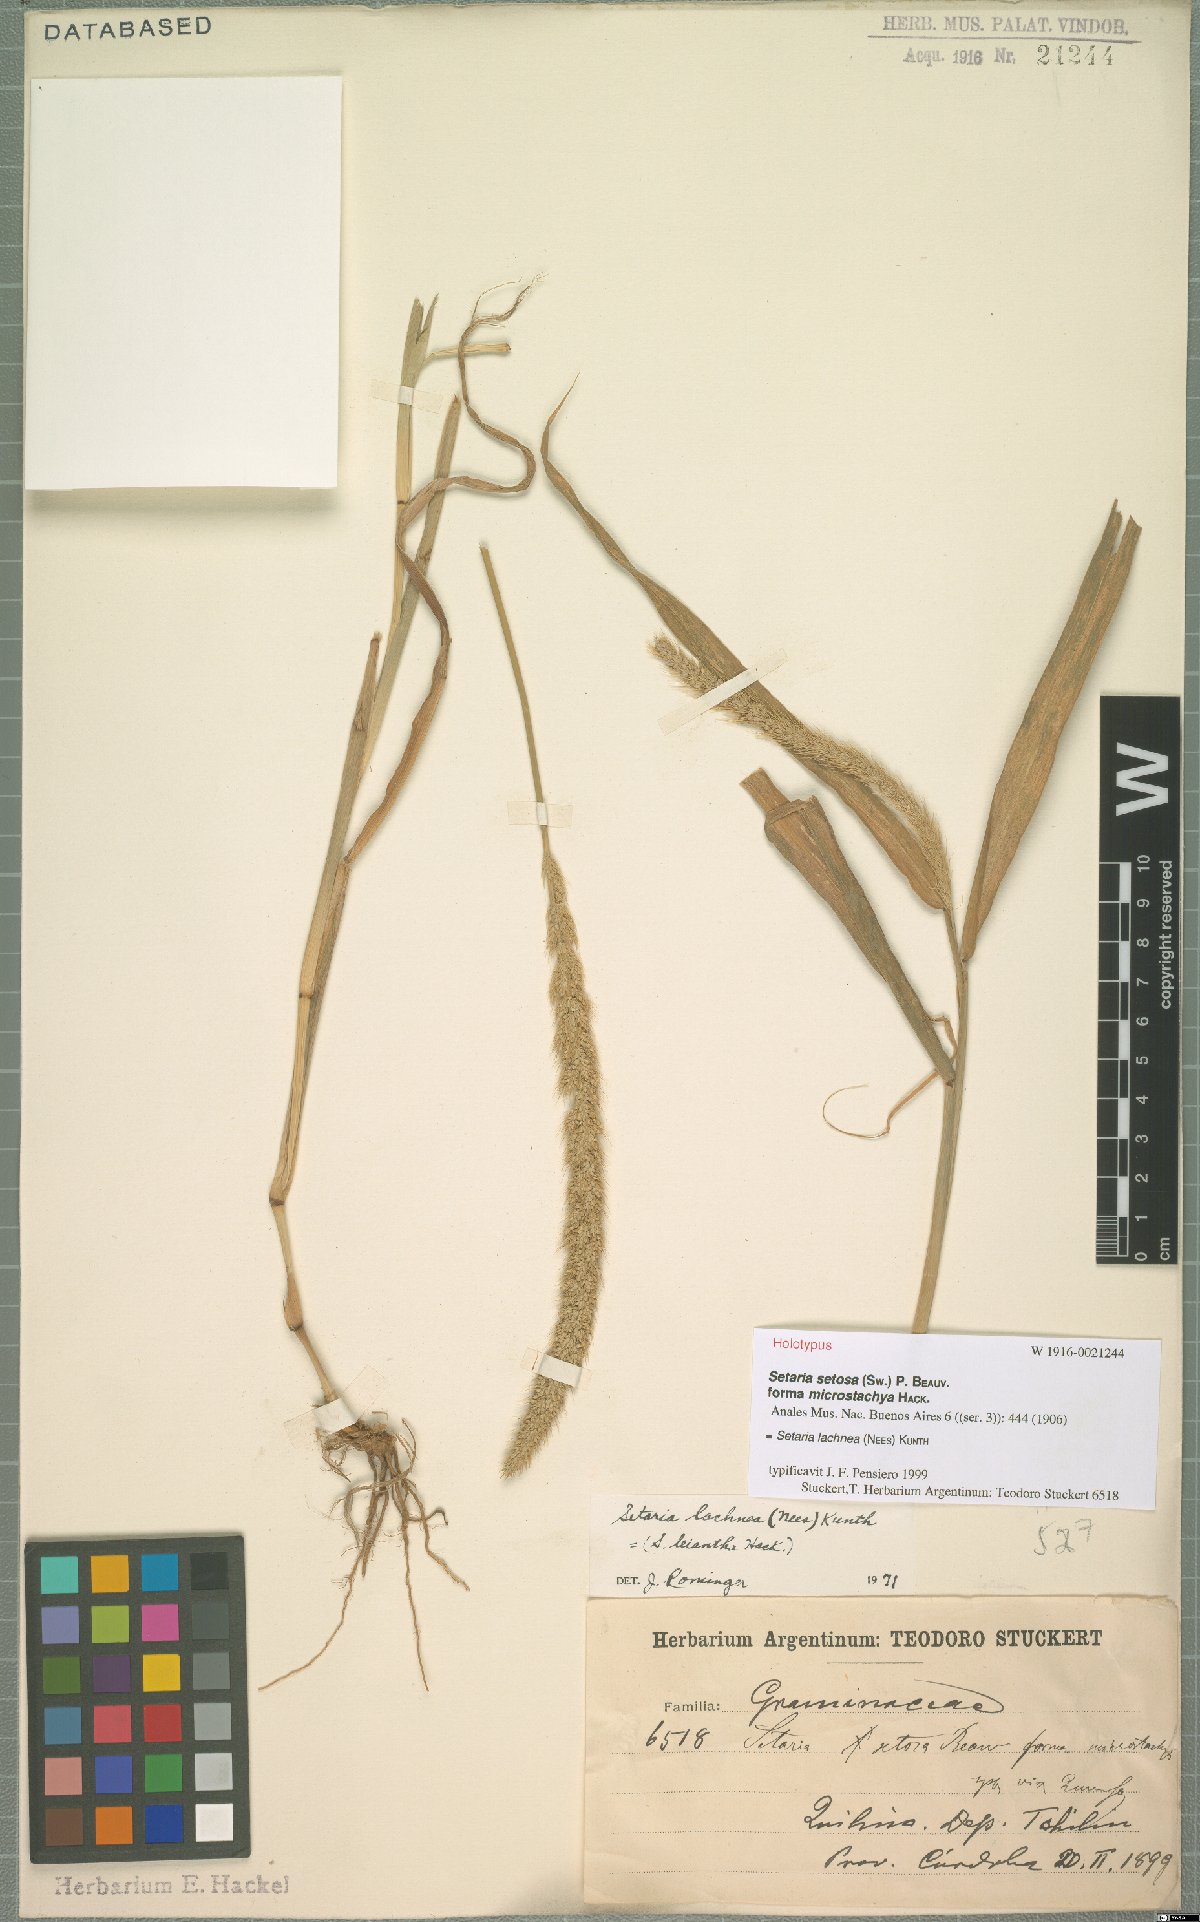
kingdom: Plantae
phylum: Tracheophyta
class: Liliopsida
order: Poales
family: Poaceae
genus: Setaria
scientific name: Setaria lachnea
